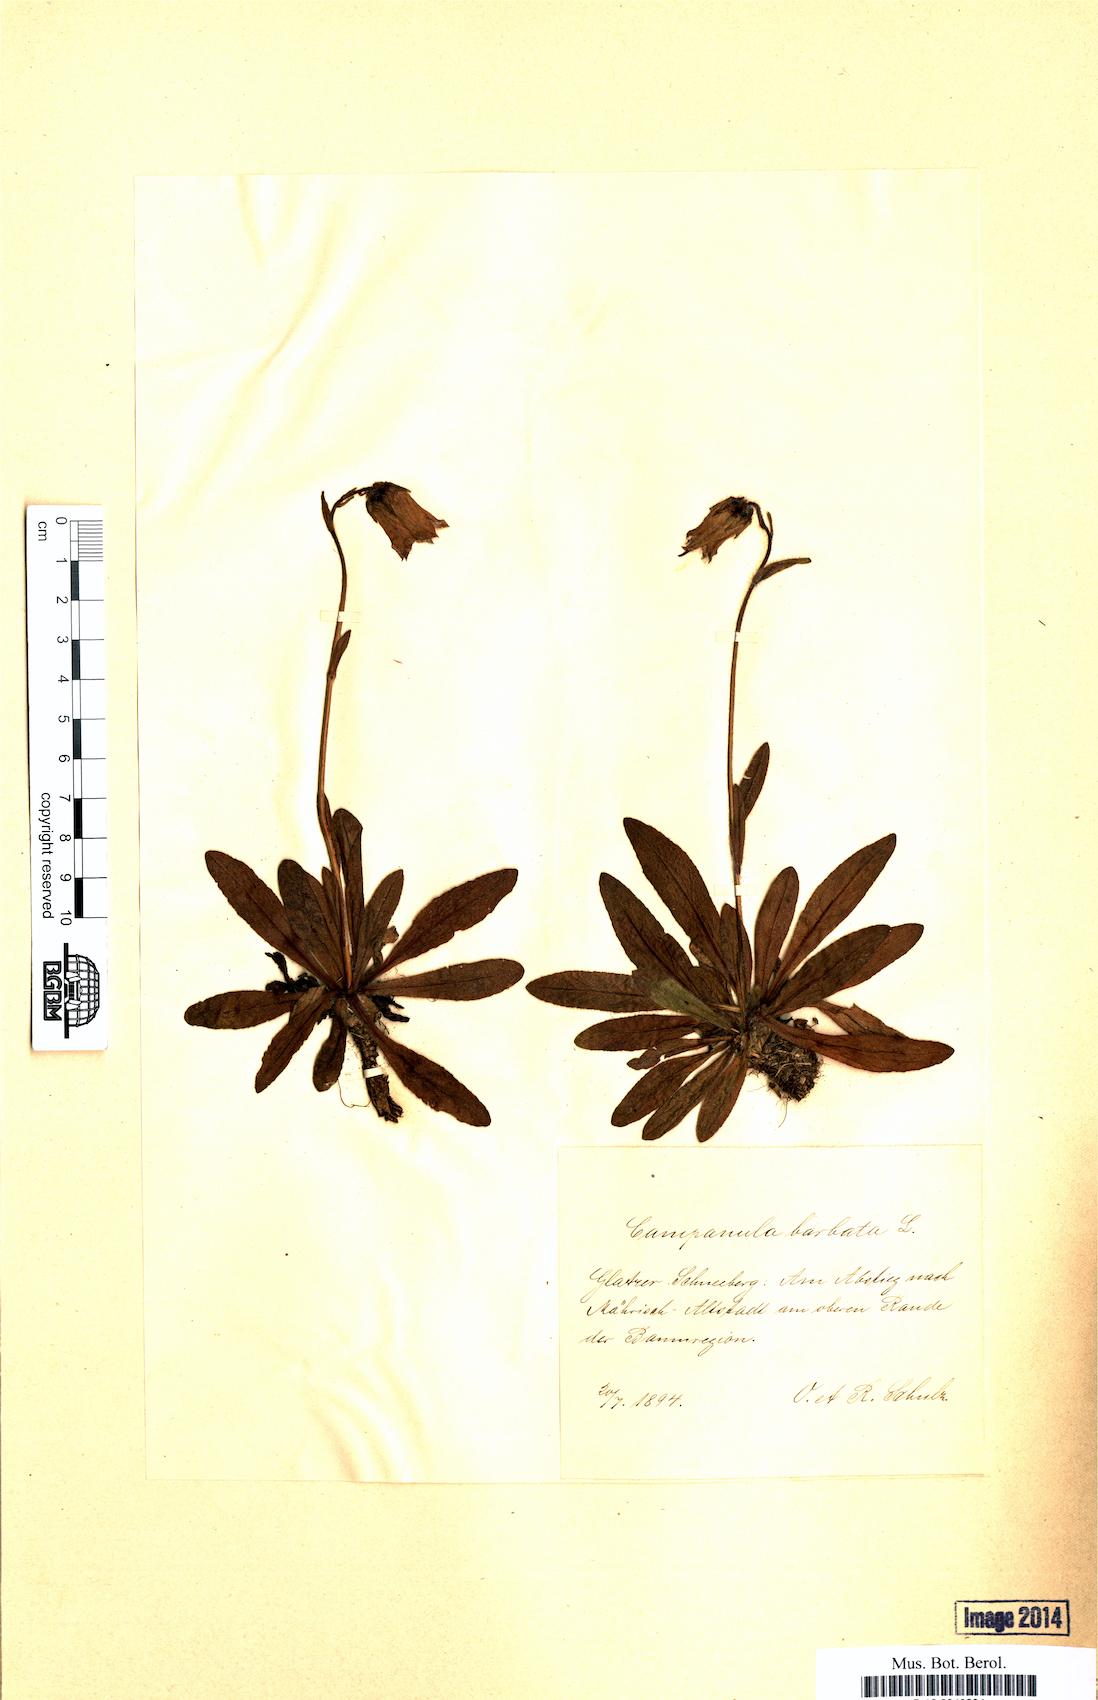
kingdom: Plantae
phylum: Tracheophyta
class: Magnoliopsida
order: Asterales
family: Campanulaceae
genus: Campanula
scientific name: Campanula barbata
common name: Bearded bellflower
